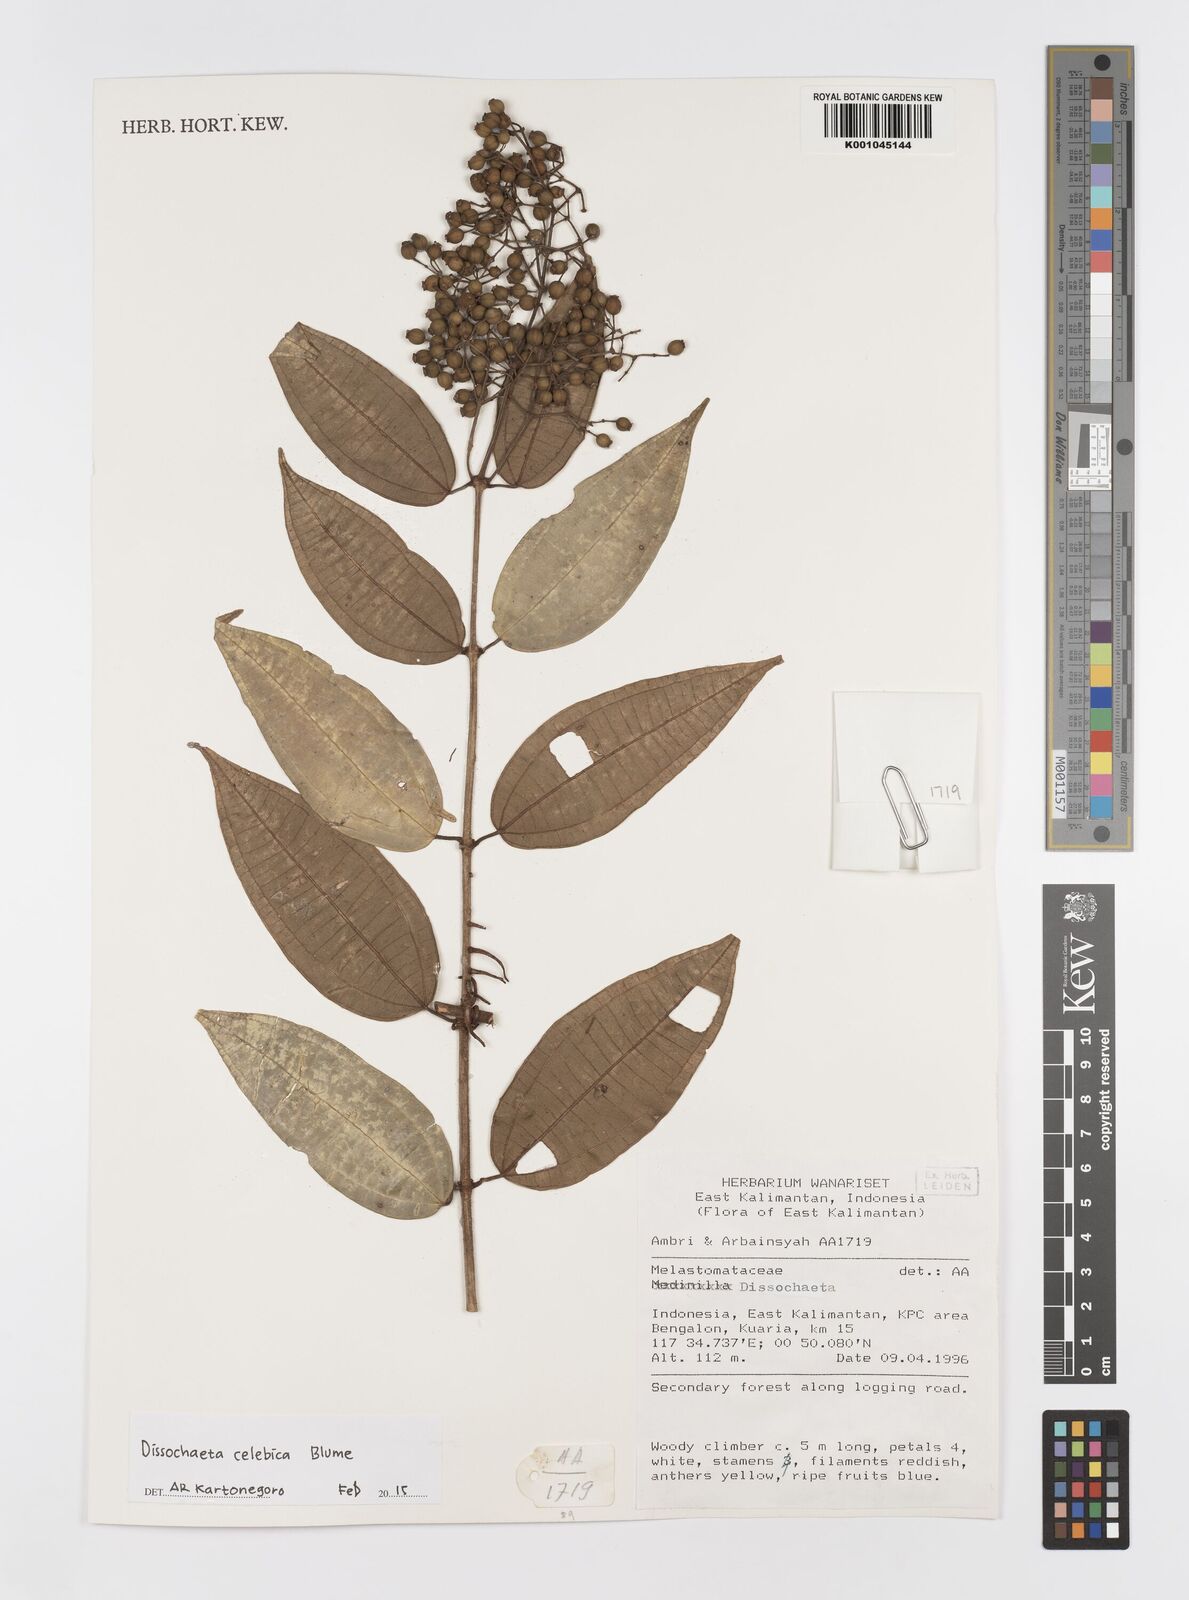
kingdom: Plantae
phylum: Tracheophyta
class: Magnoliopsida
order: Myrtales
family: Melastomataceae
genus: Dissochaeta
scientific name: Dissochaeta celebica
